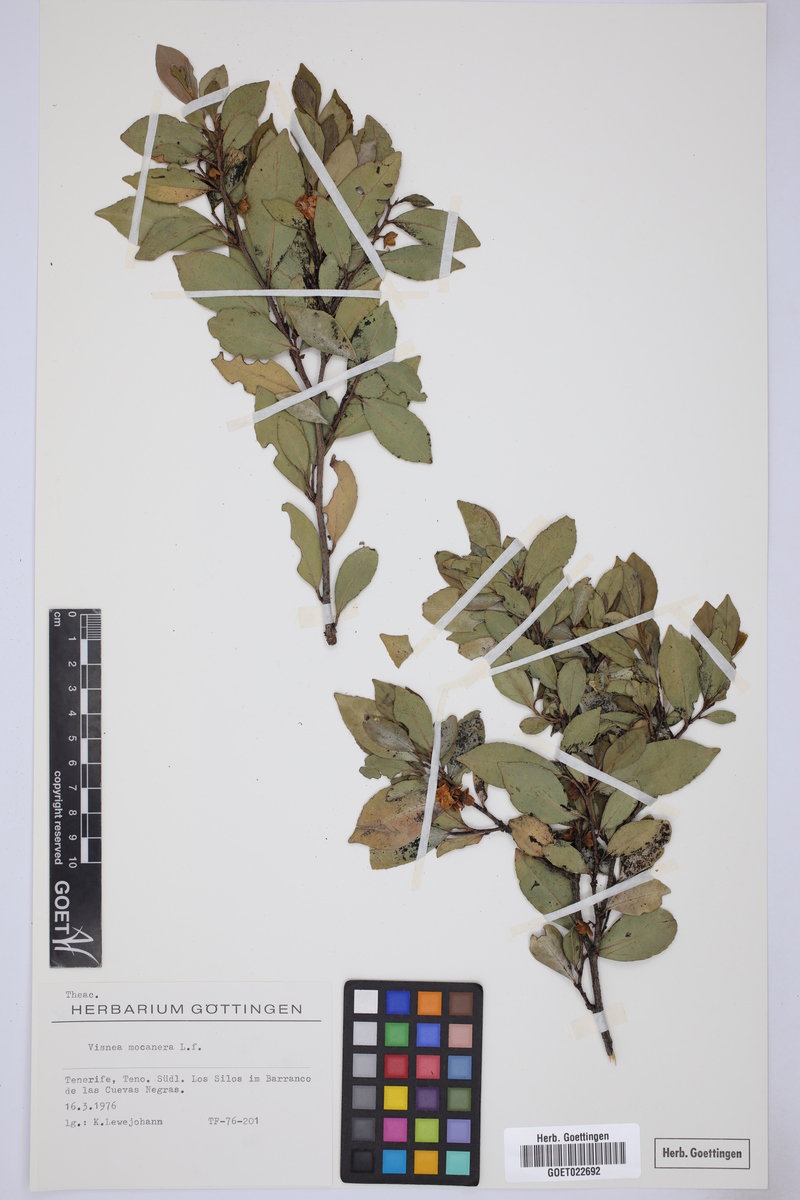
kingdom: Plantae
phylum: Tracheophyta
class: Magnoliopsida
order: Ericales
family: Pentaphylacaceae
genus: Visnea
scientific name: Visnea mocanera
